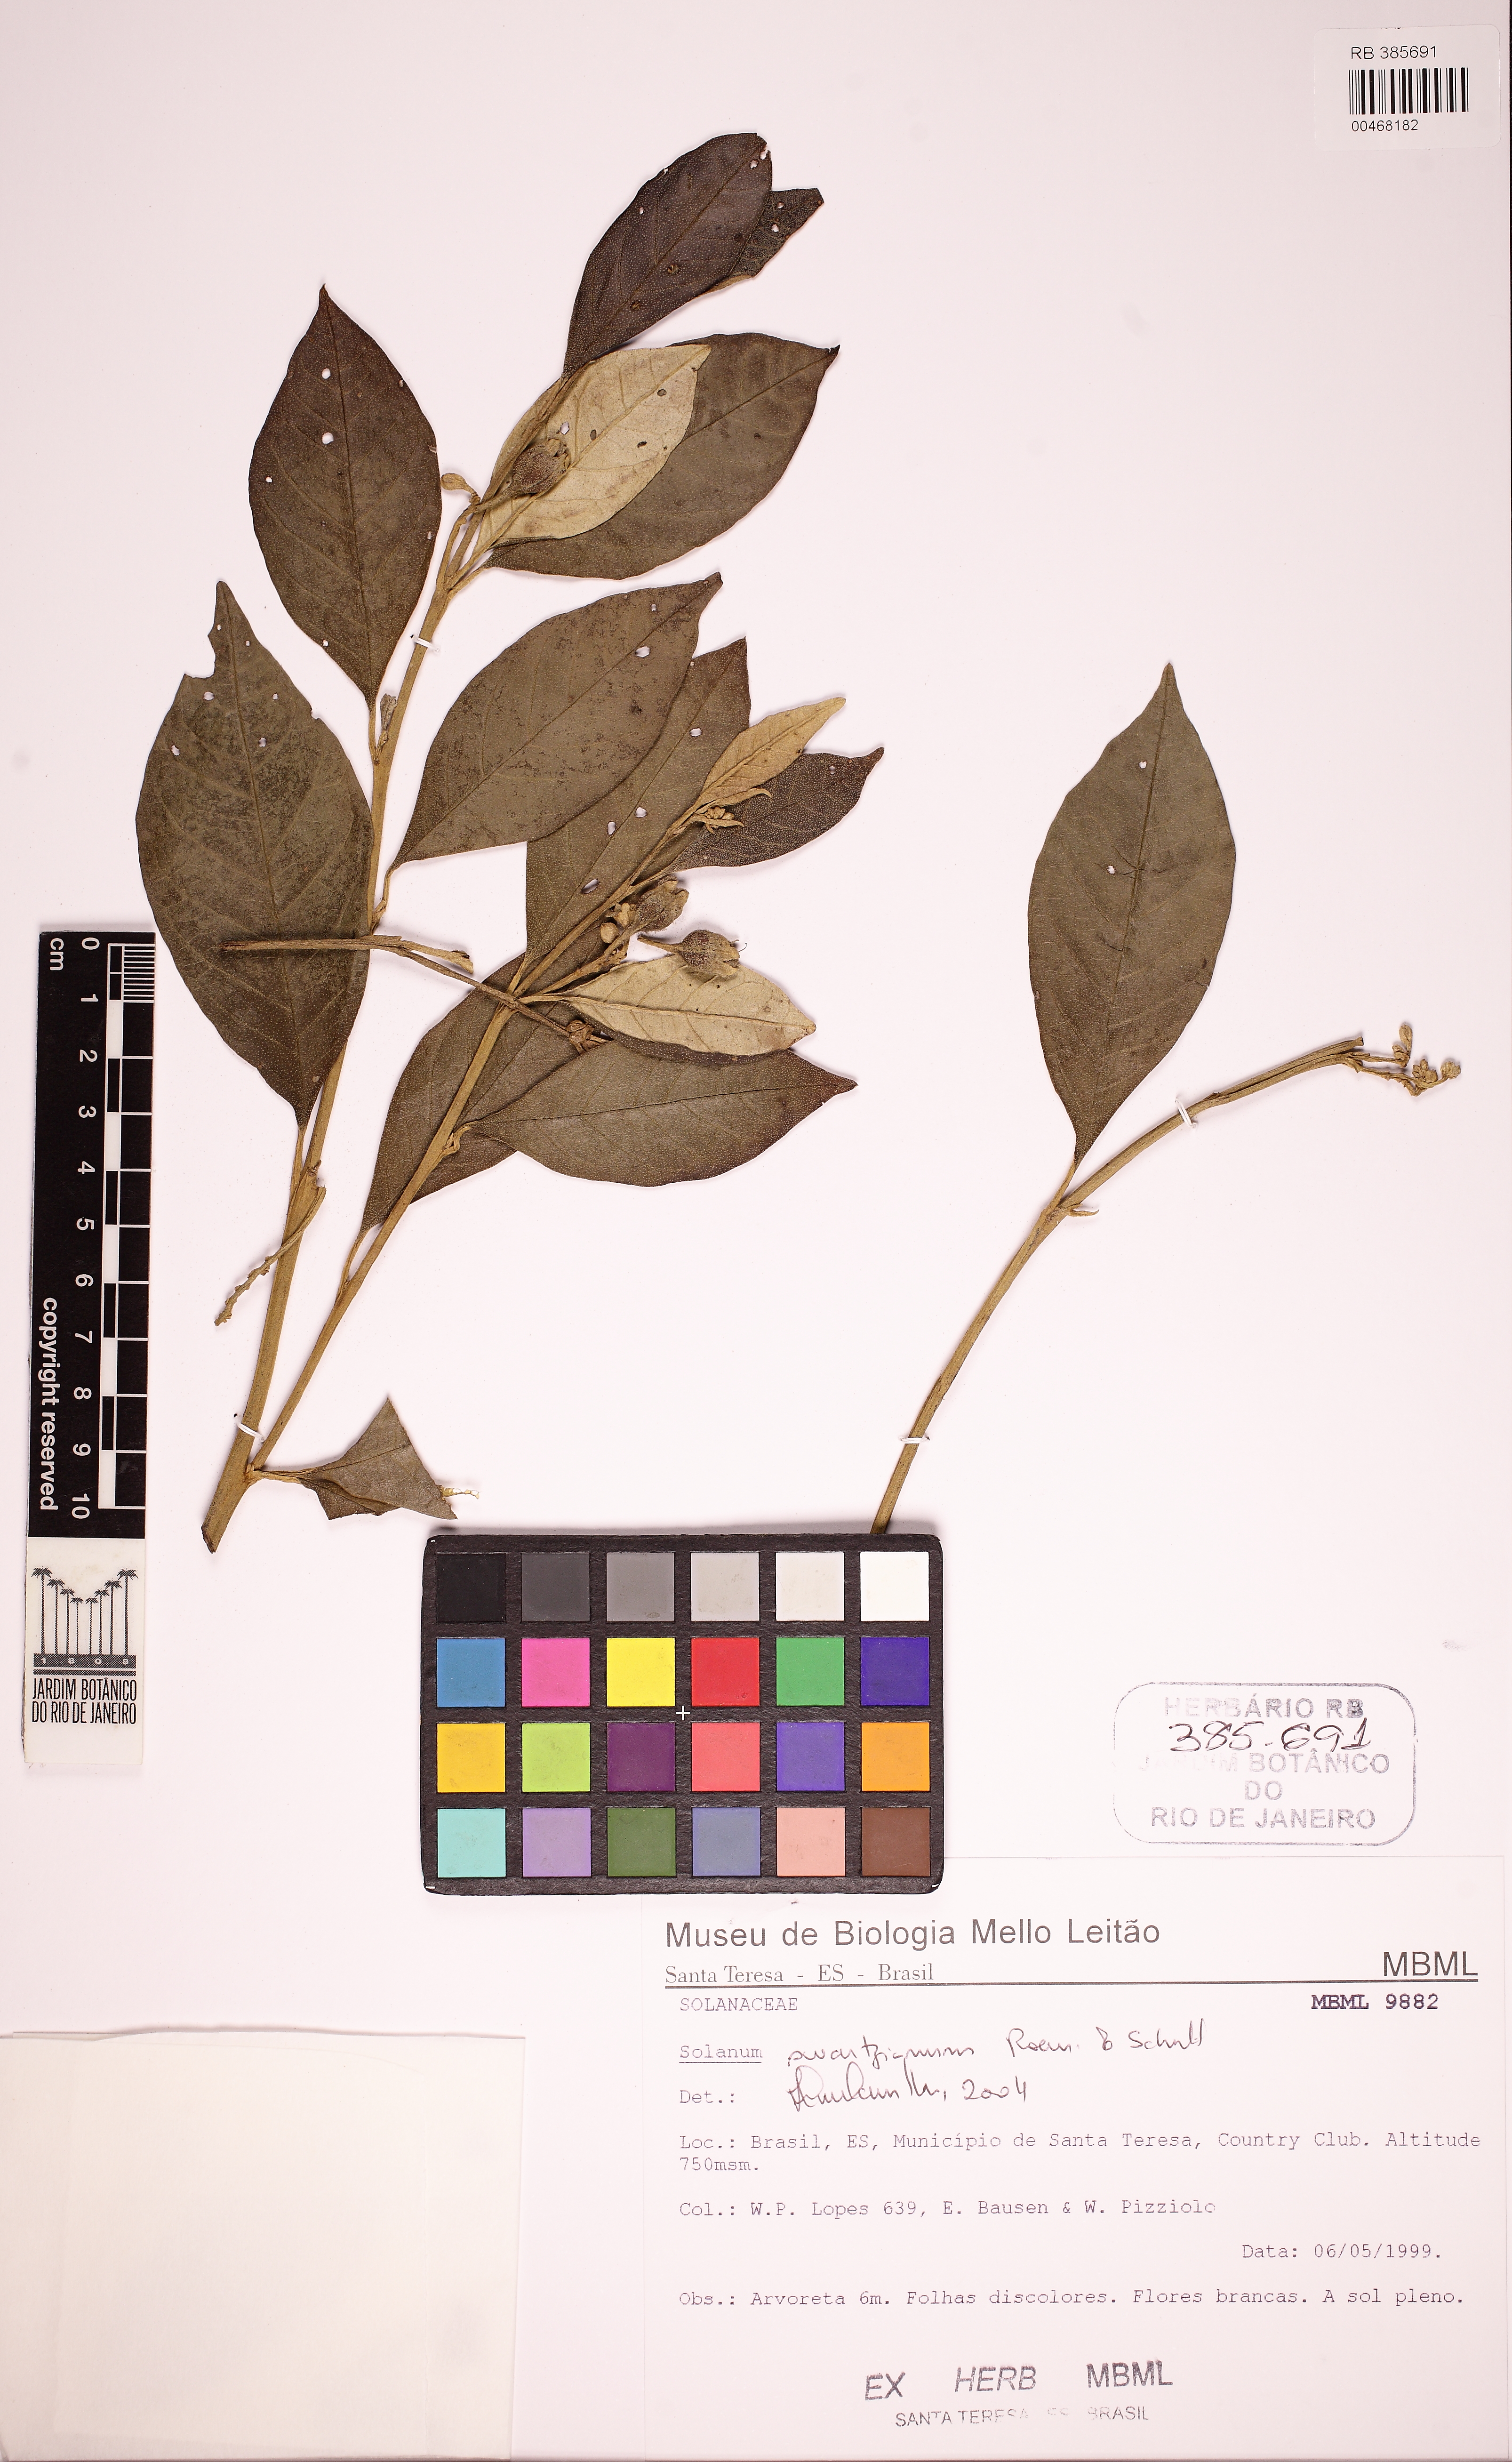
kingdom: Plantae
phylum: Tracheophyta
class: Magnoliopsida
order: Solanales
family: Solanaceae
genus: Solanum
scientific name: Solanum swartzianum
